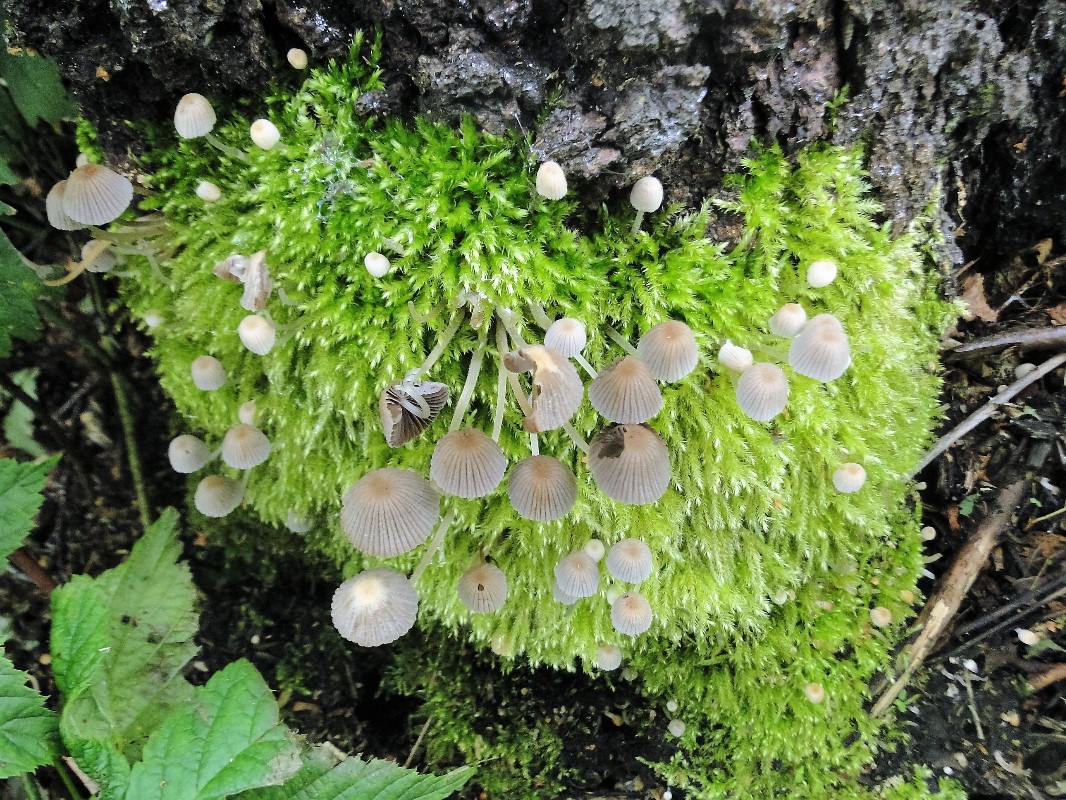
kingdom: Fungi
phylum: Basidiomycota
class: Agaricomycetes
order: Agaricales
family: Psathyrellaceae
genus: Coprinellus
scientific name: Coprinellus disseminatus
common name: bredsået blækhat
